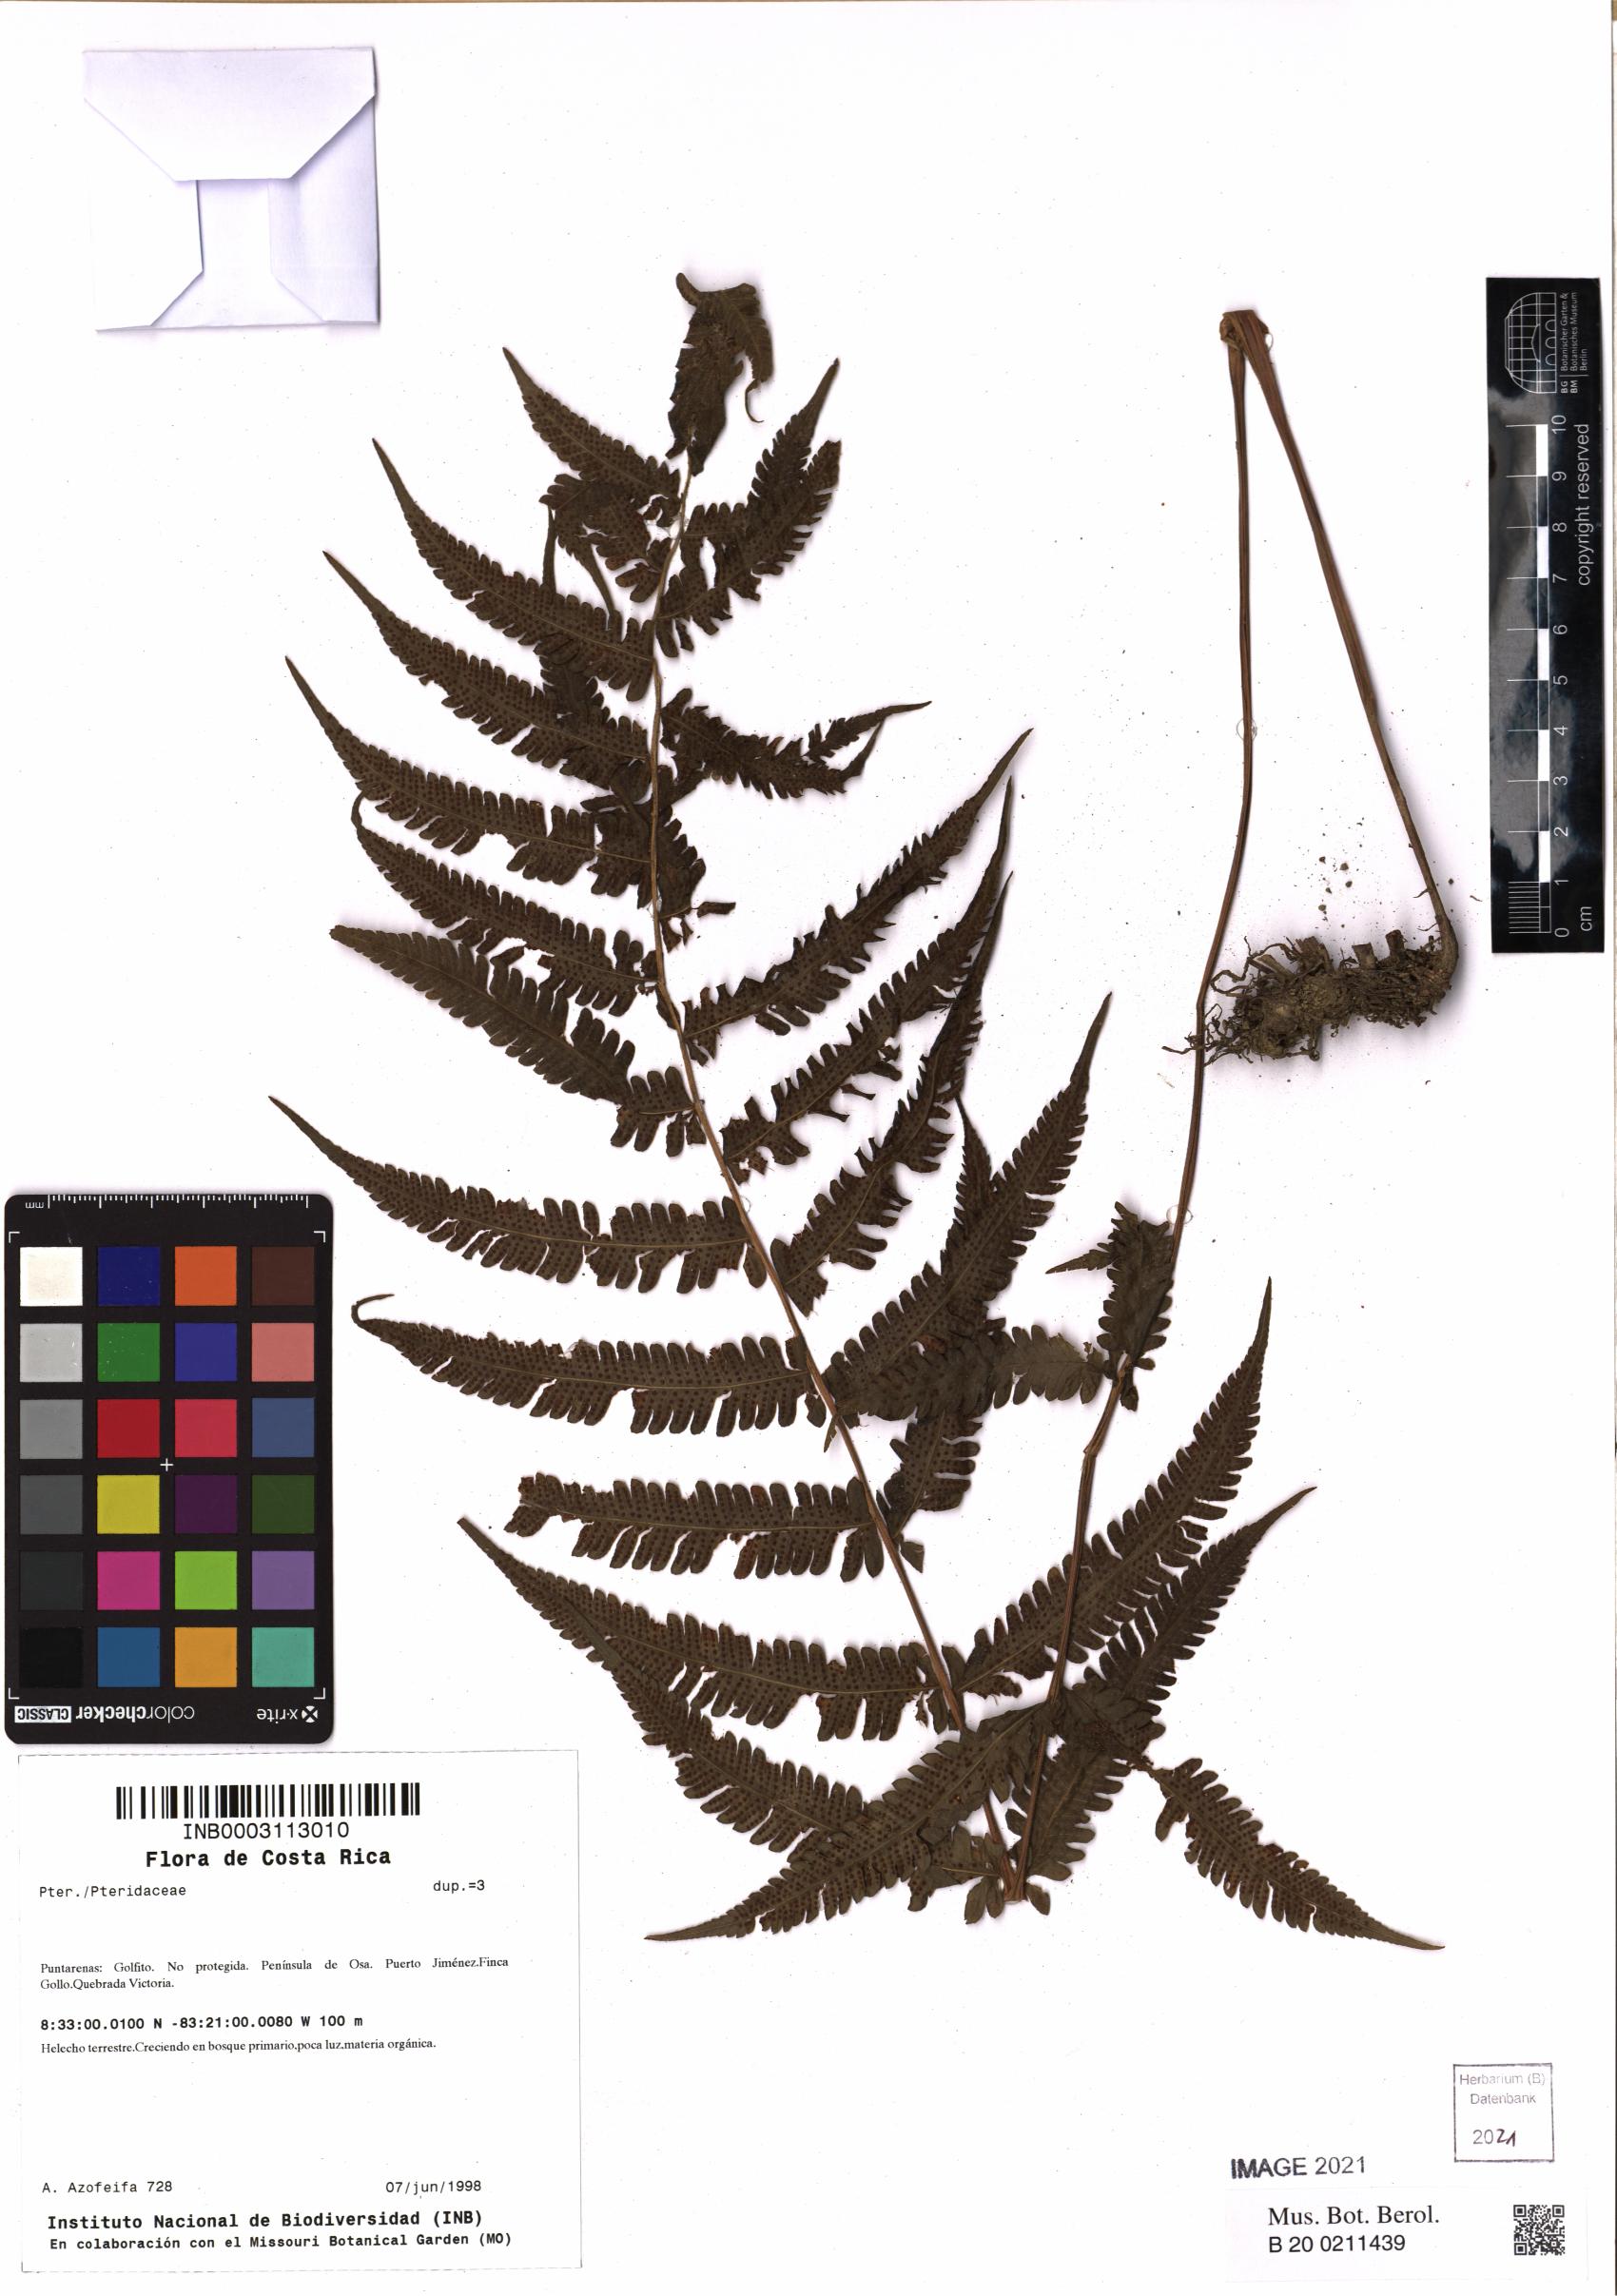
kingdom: Plantae
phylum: Tracheophyta
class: Polypodiopsida
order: Polypodiales
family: Pteridaceae
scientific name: Pteridaceae
